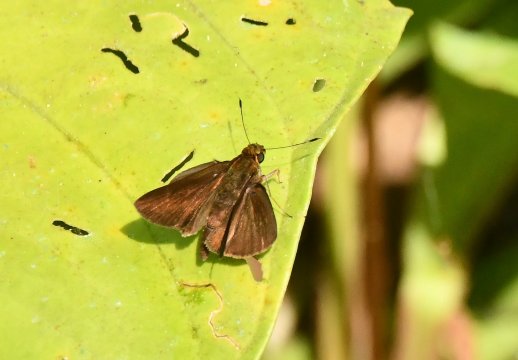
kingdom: Animalia
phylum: Arthropoda
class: Insecta
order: Lepidoptera
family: Hesperiidae
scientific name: Hesperiidae
